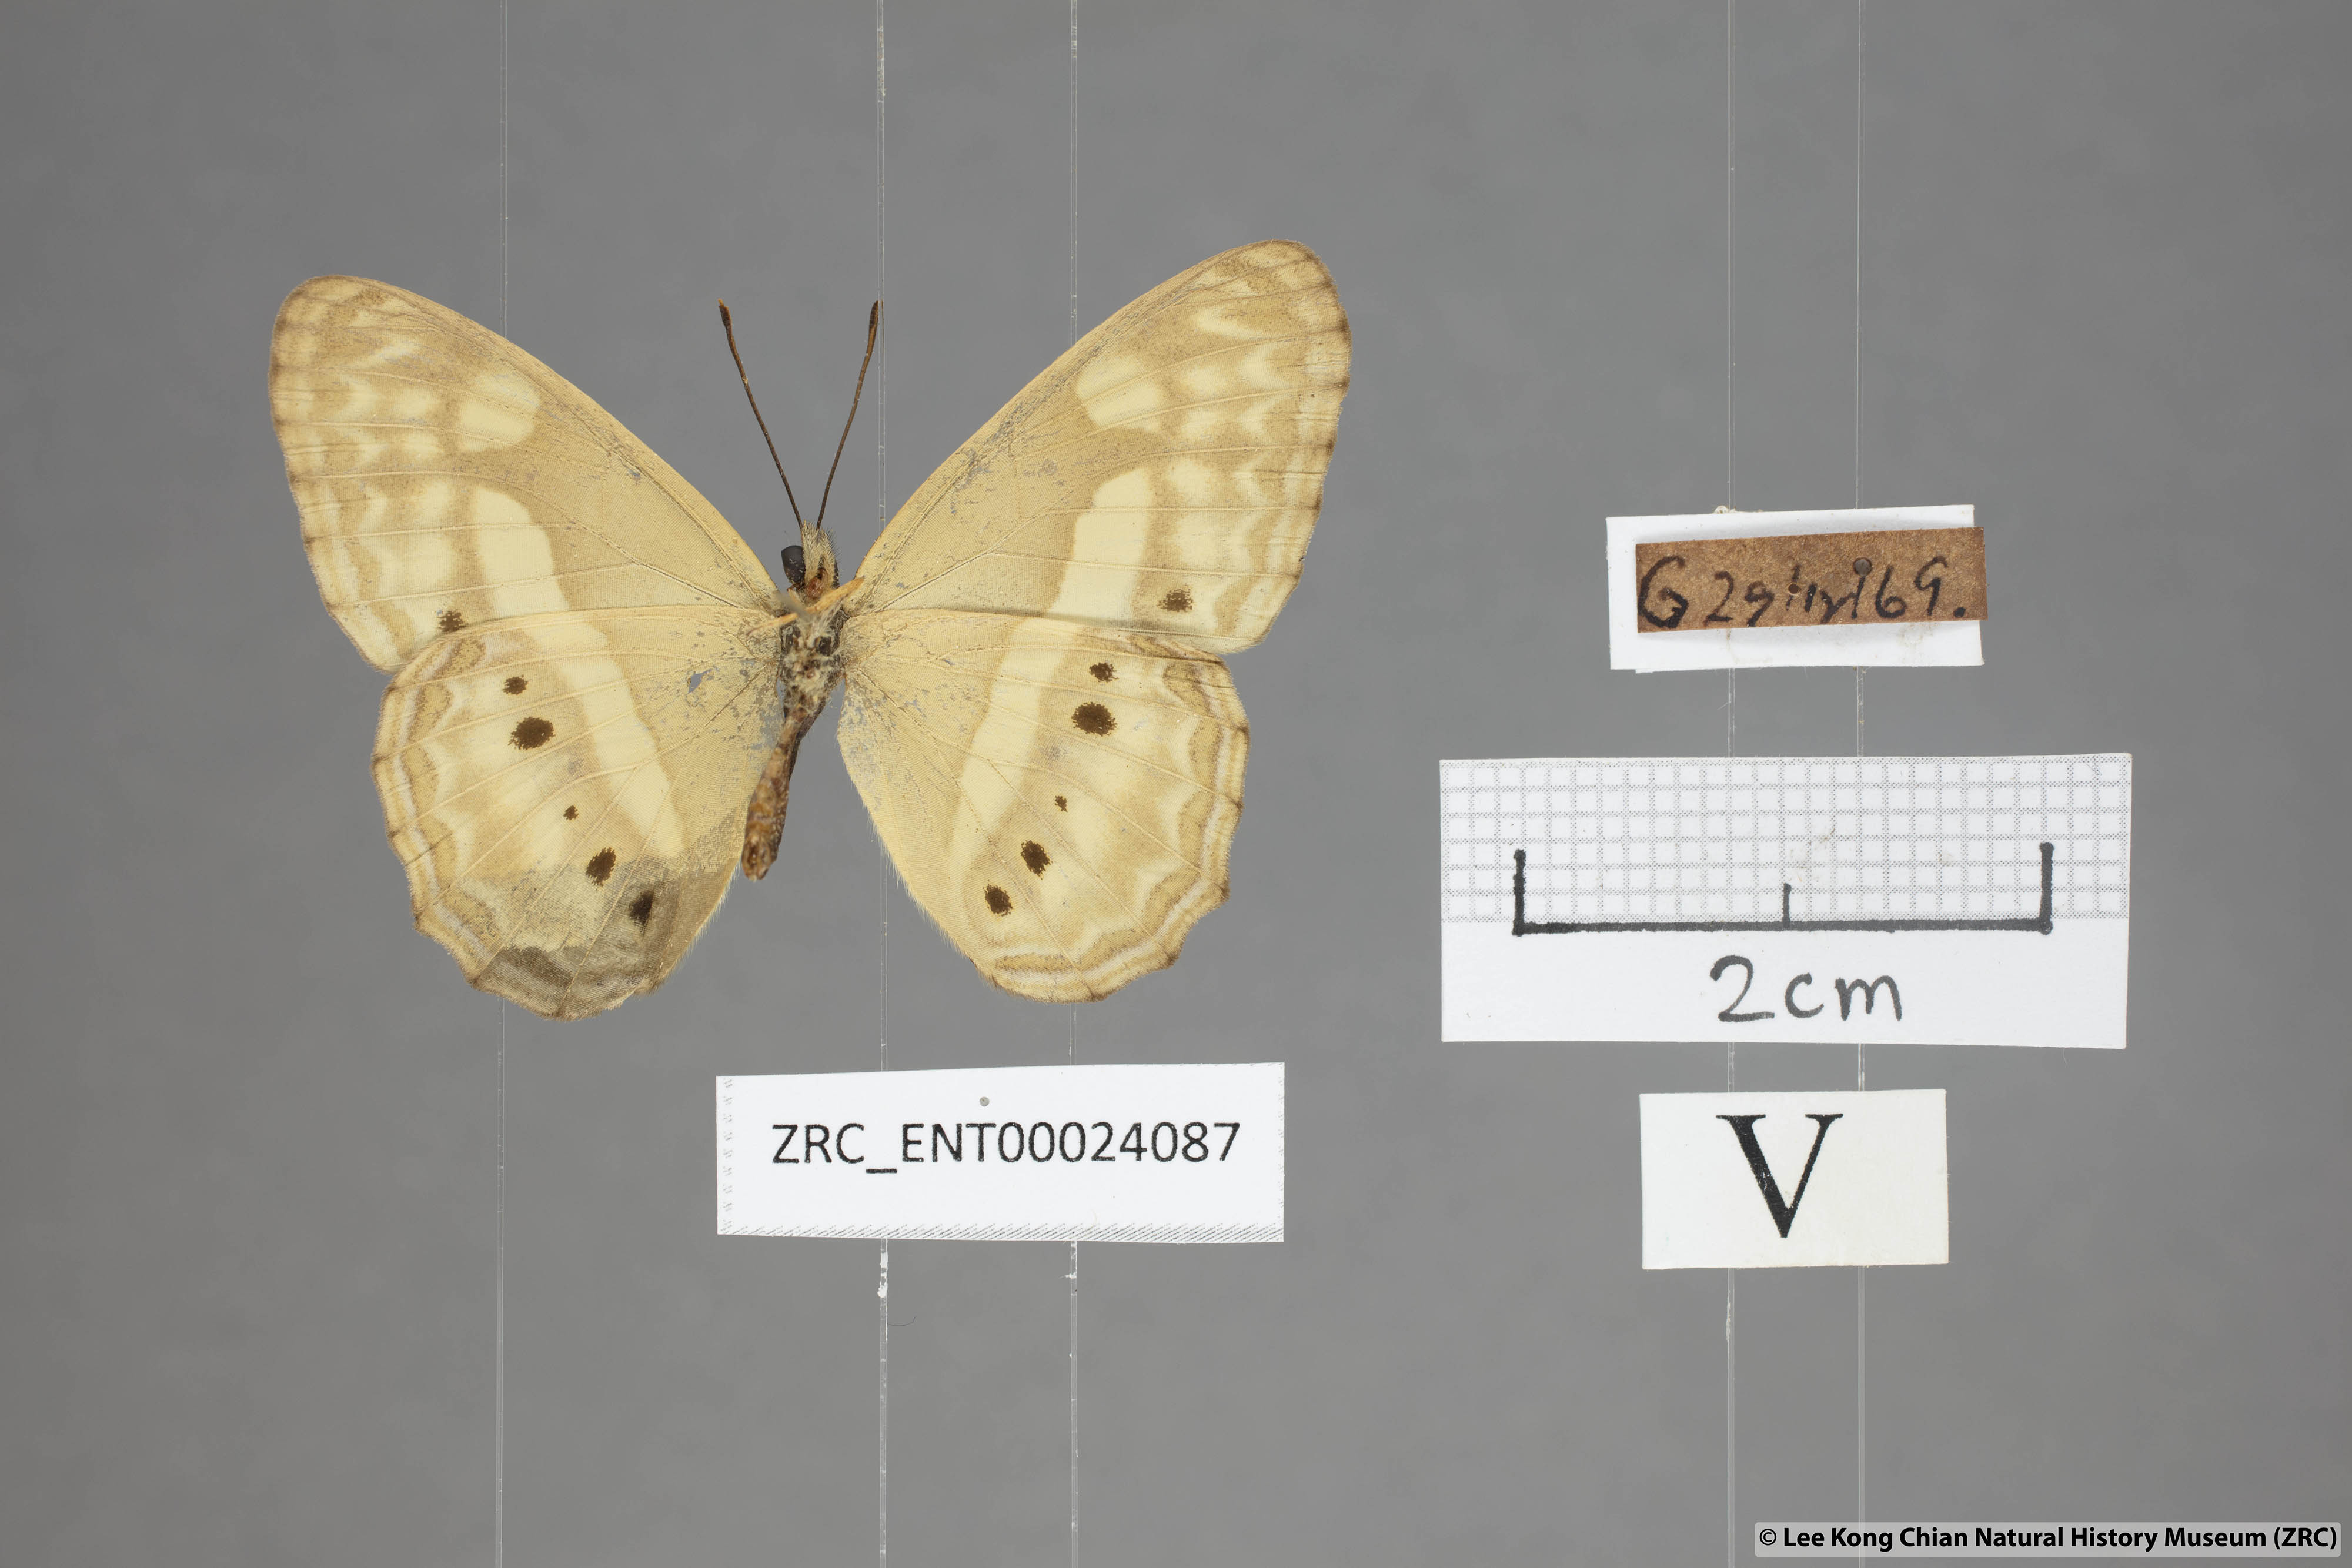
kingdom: Animalia
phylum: Arthropoda
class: Insecta
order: Lepidoptera
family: Nymphalidae
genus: Cirrochroa
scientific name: Cirrochroa fasciata
